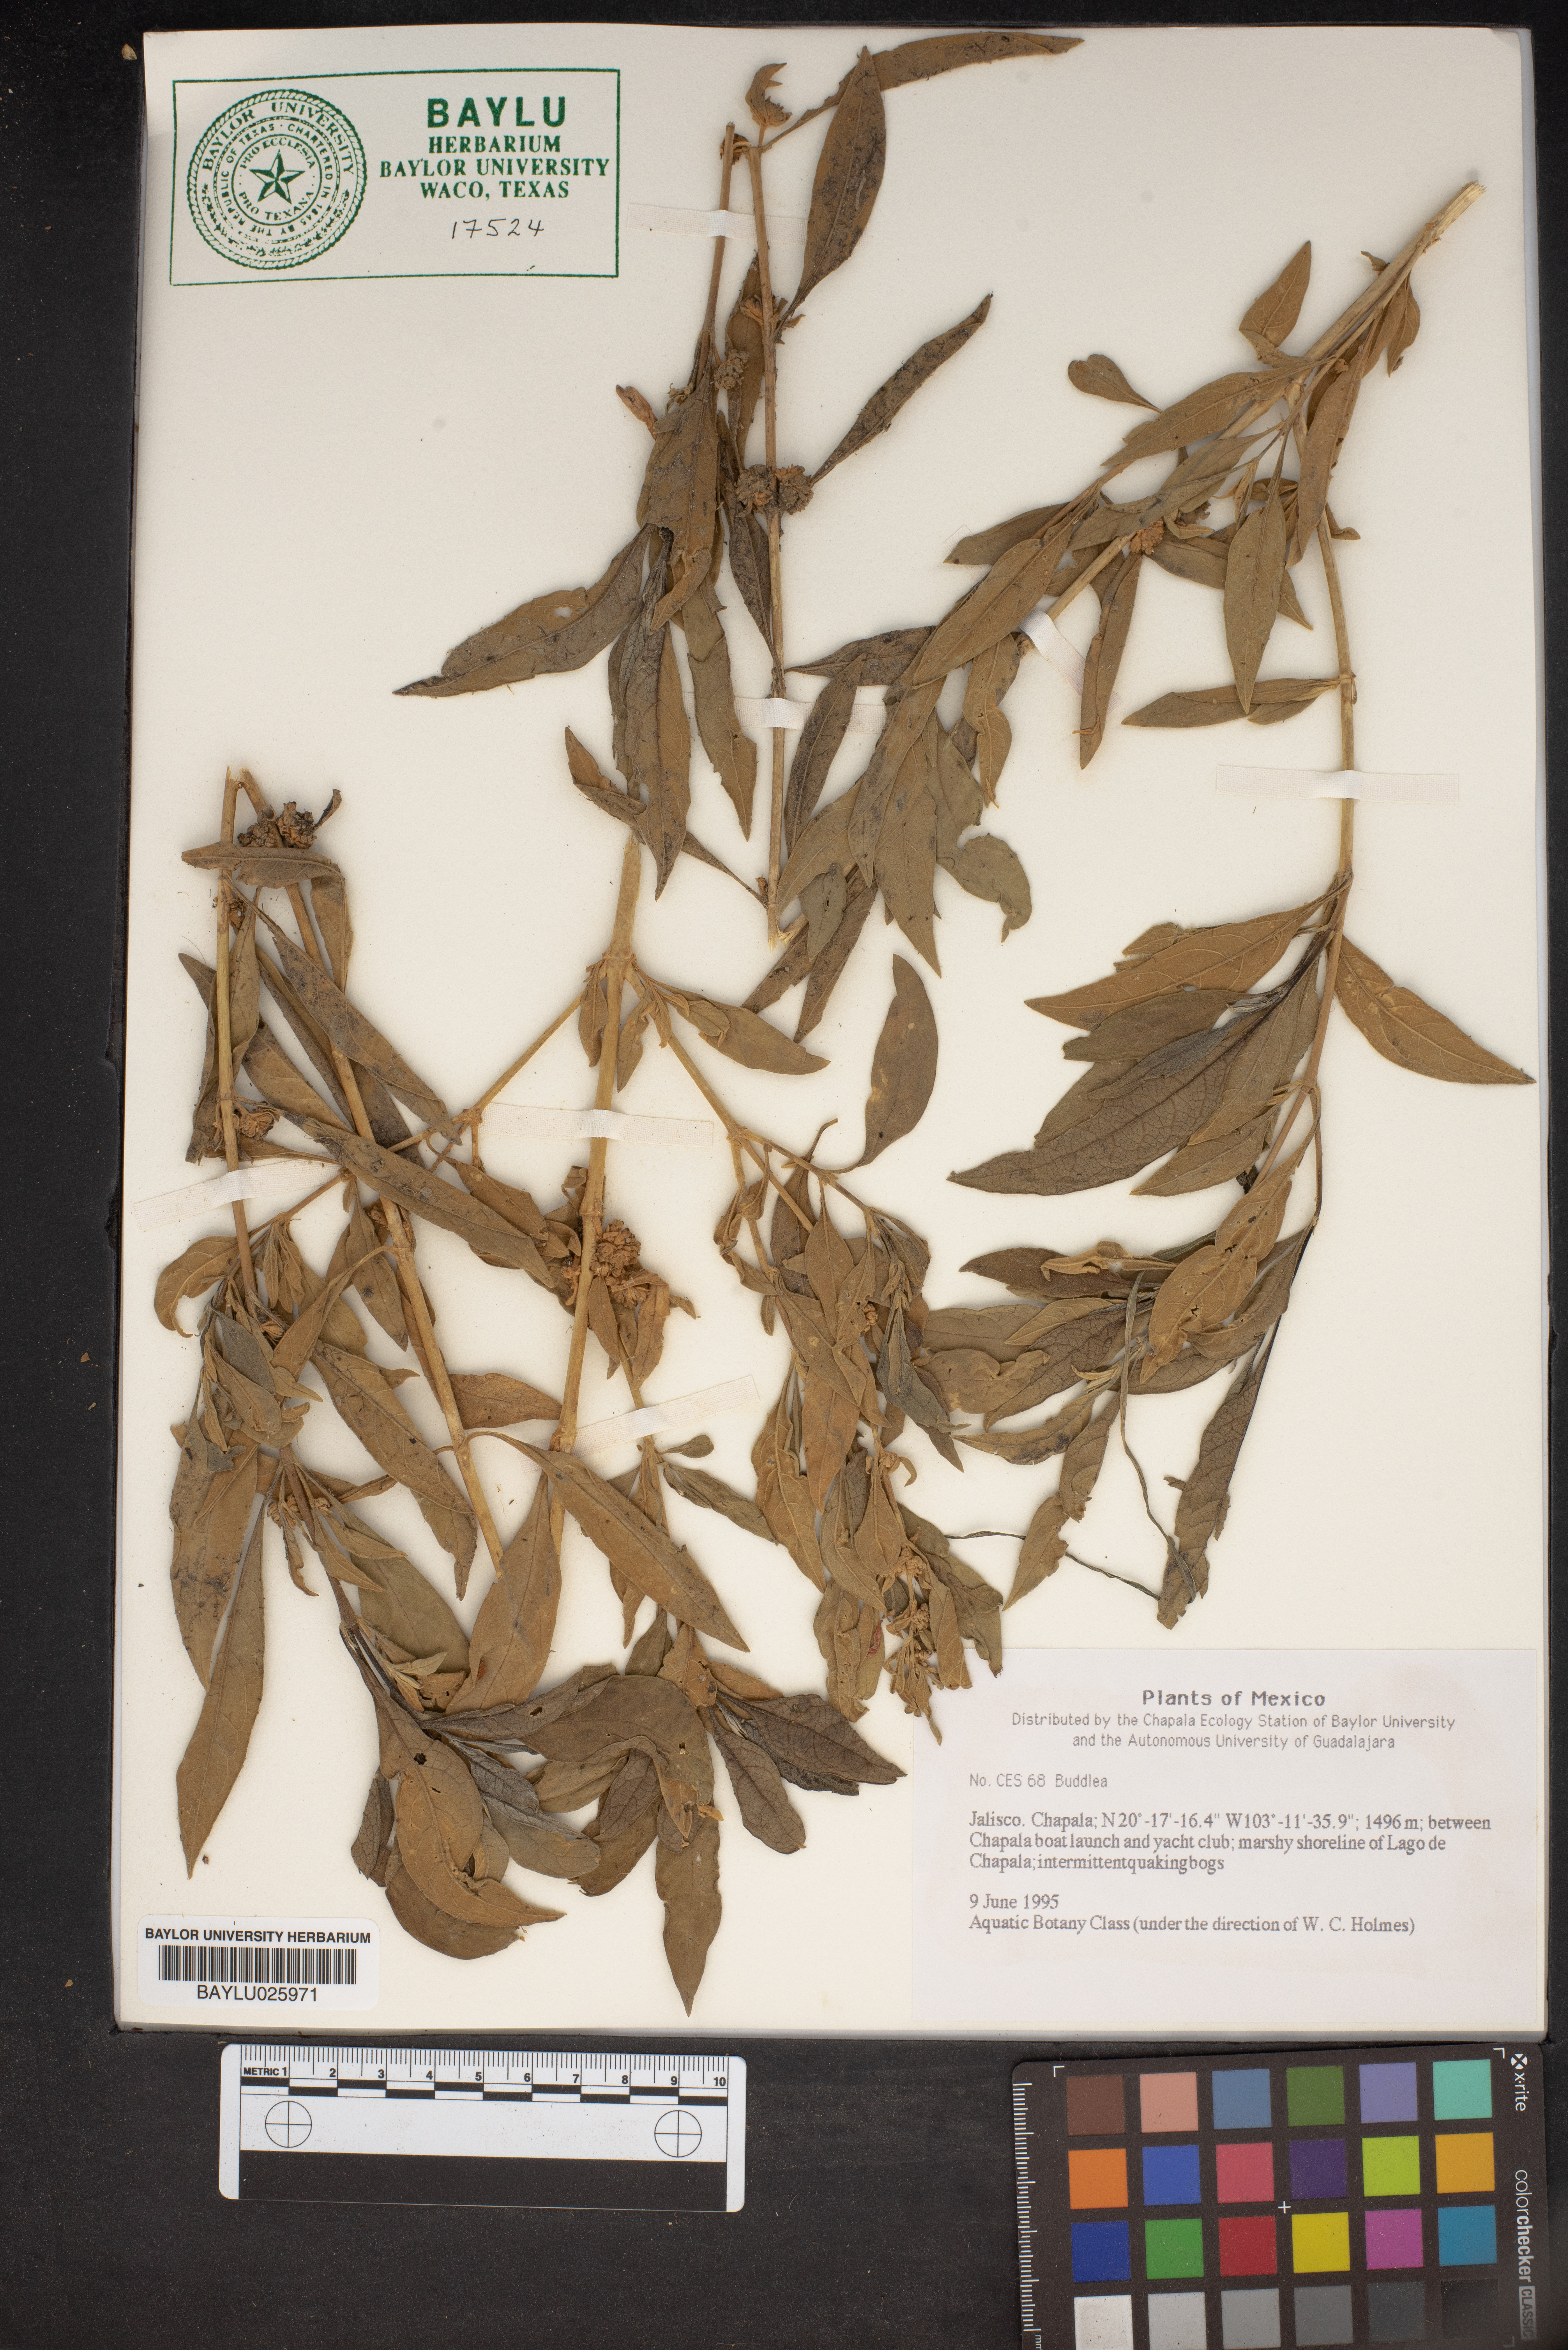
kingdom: Plantae
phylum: Tracheophyta
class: Magnoliopsida
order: Lamiales
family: Scrophulariaceae
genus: Buddleja
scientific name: Buddleja
